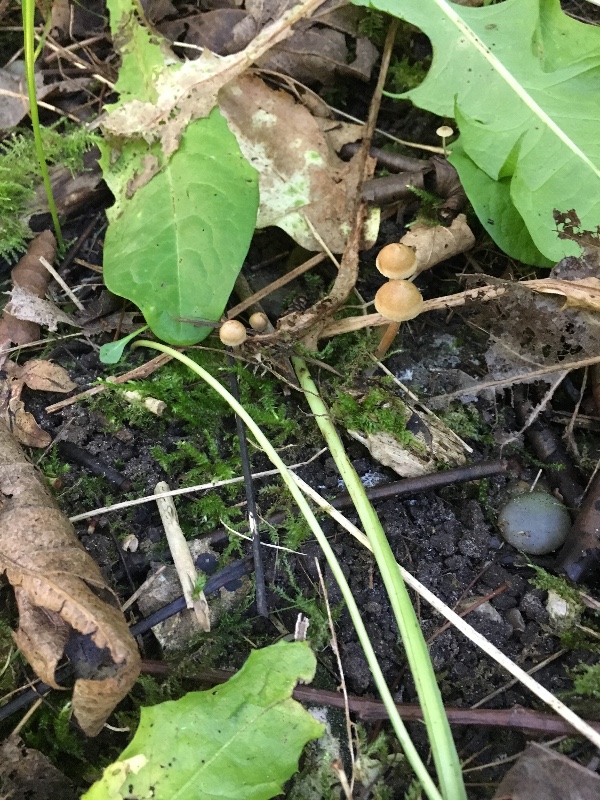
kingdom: Fungi
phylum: Basidiomycota
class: Agaricomycetes
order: Agaricales
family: Inocybaceae
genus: Inocybe
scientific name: Inocybe
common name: trævlhat
